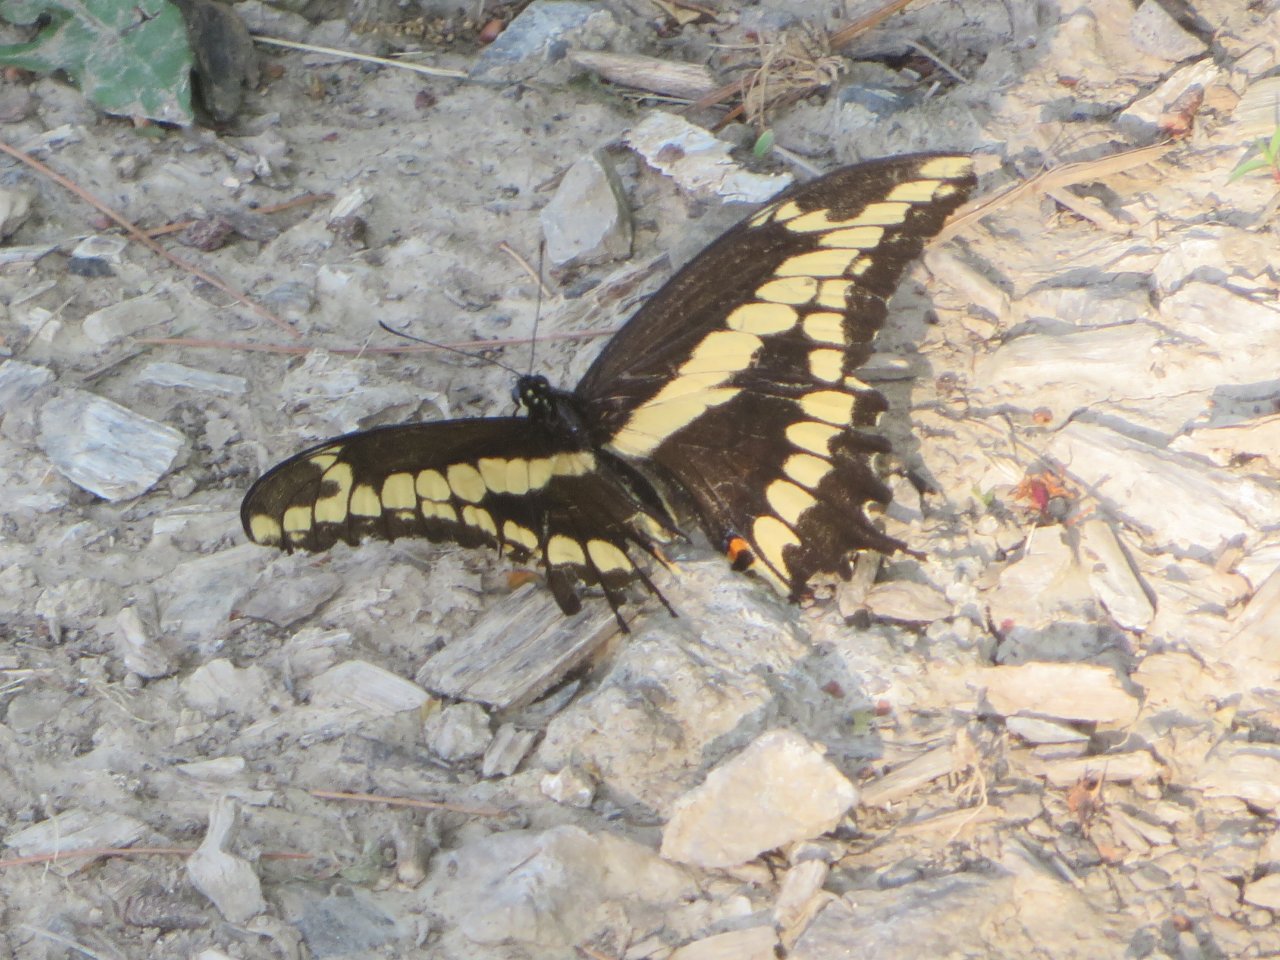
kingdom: Animalia
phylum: Arthropoda
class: Insecta
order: Lepidoptera
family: Papilionidae
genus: Papilio
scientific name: Papilio cresphontes
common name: Eastern Giant Swallowtail
